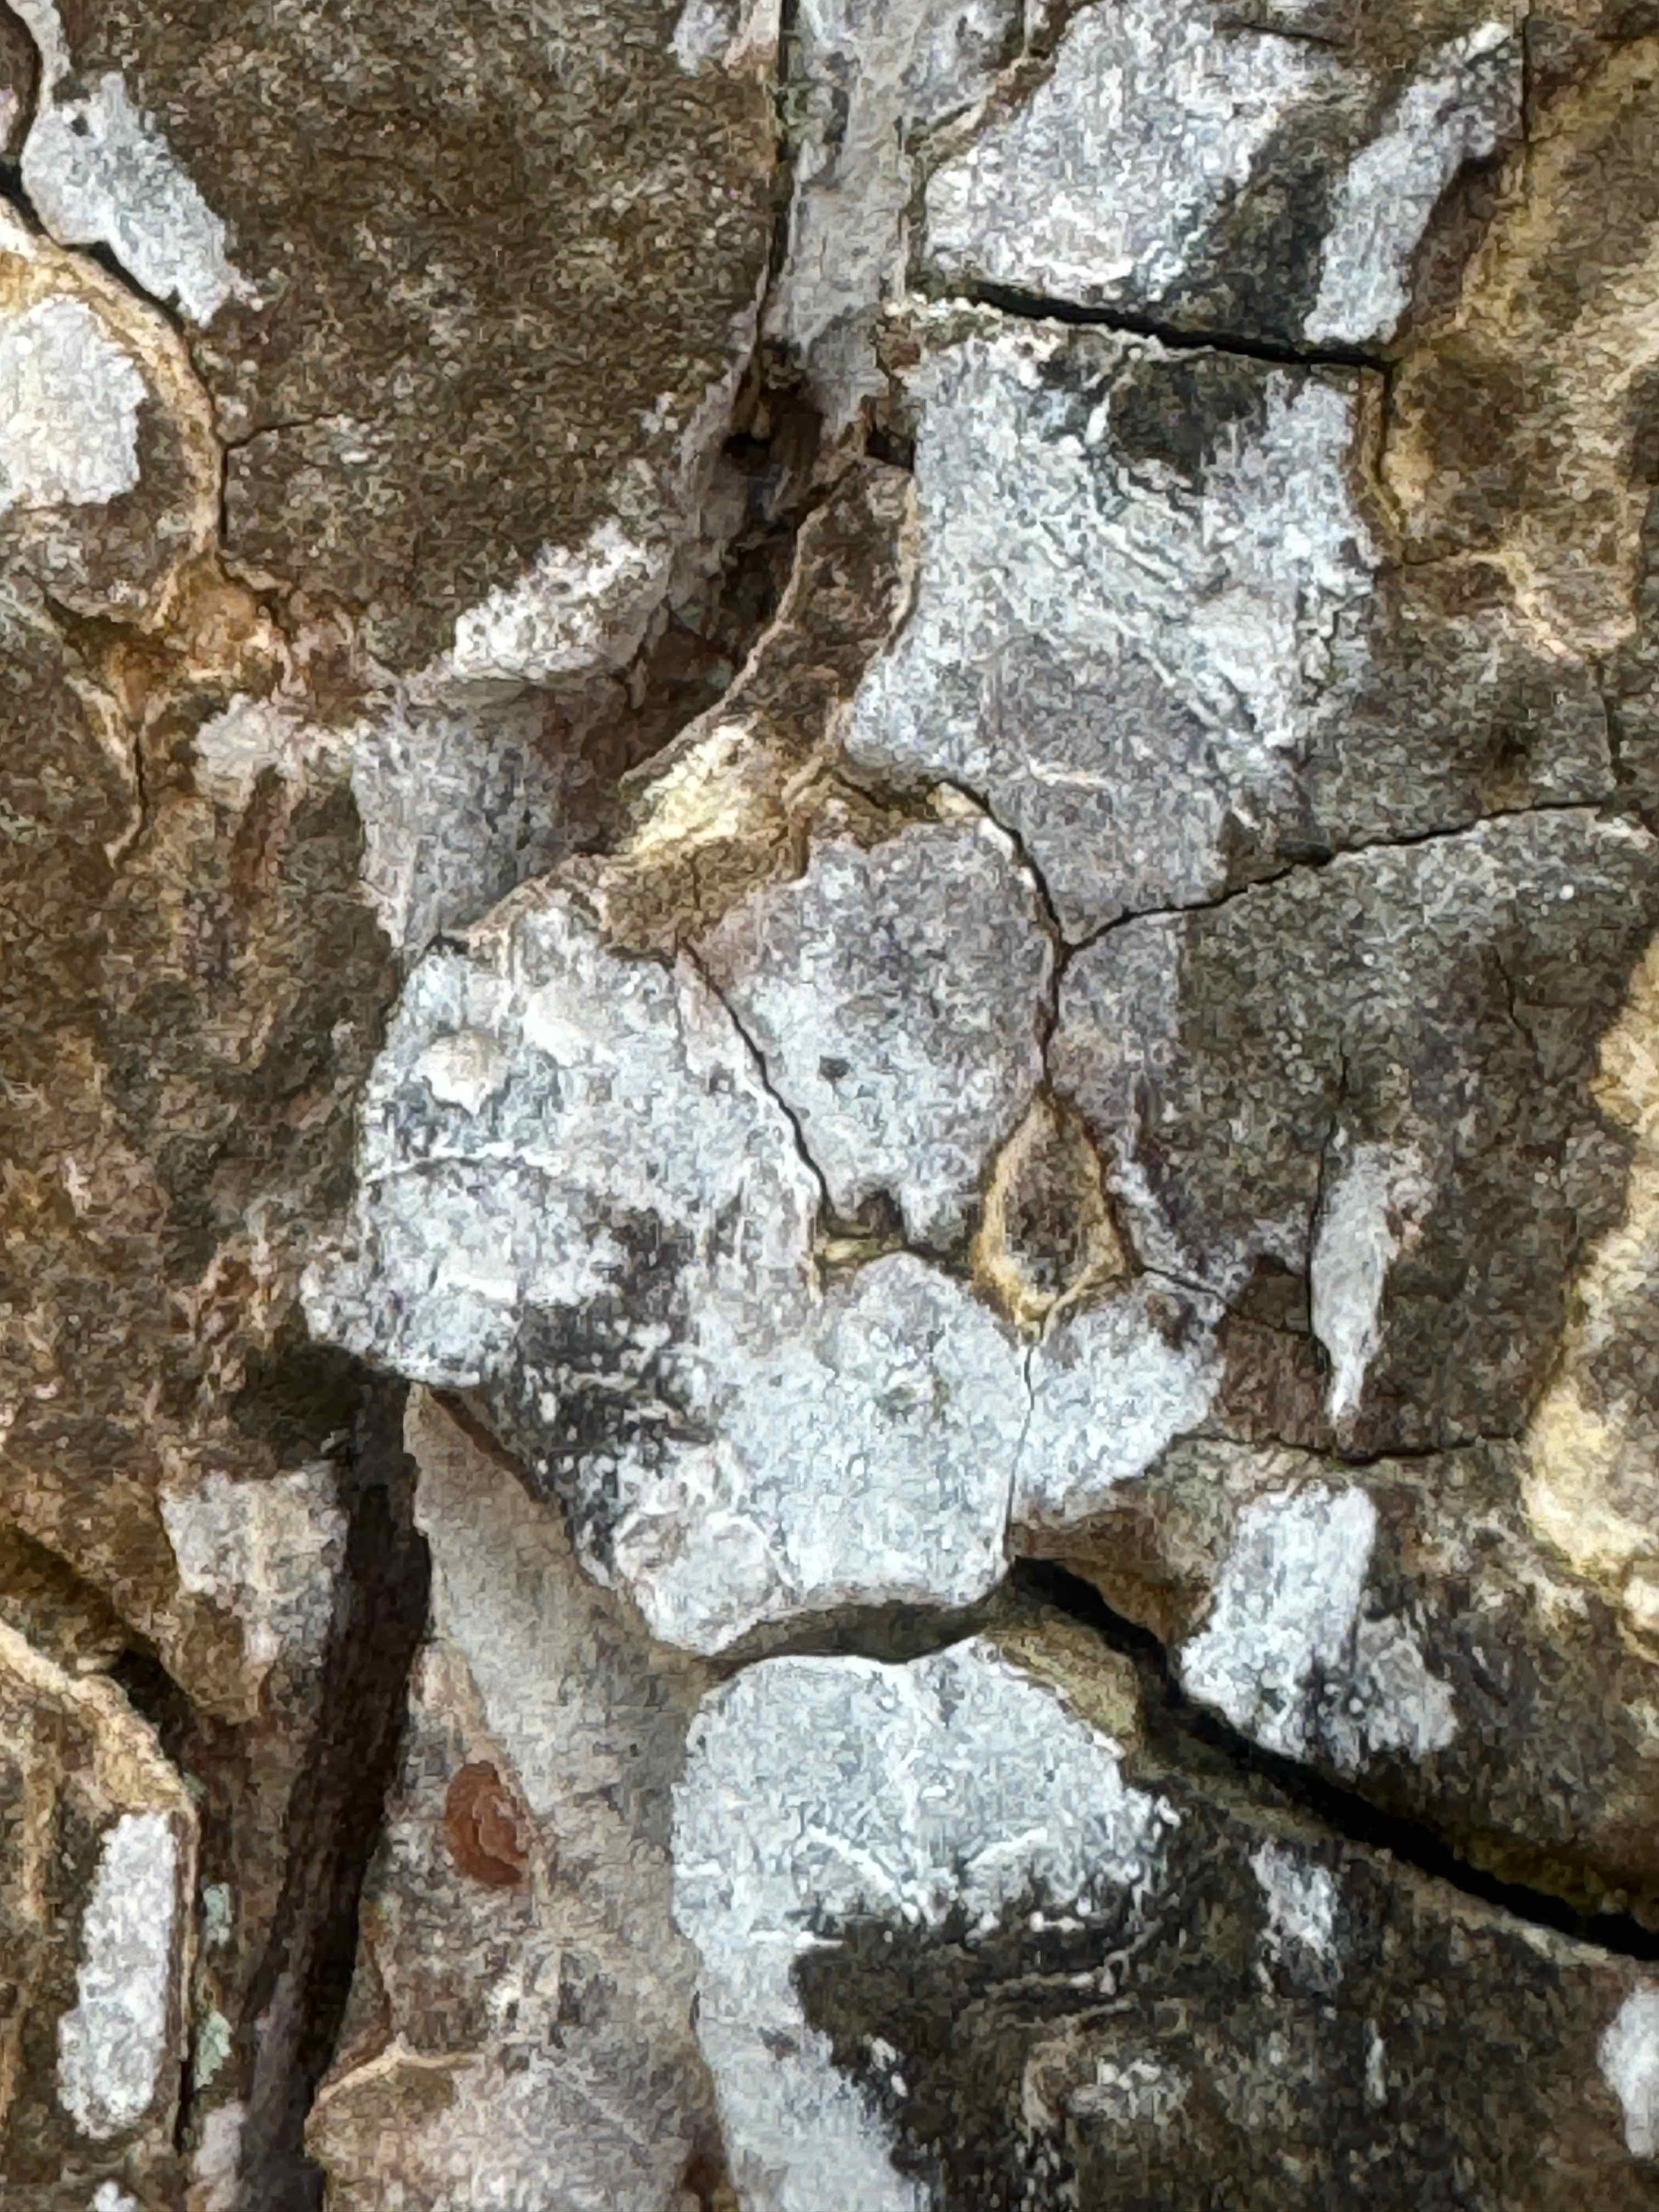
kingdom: Fungi
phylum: Basidiomycota
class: Agaricomycetes
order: Agaricales
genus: Dendrothele
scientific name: Dendrothele acerina
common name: navr-kalkplet
